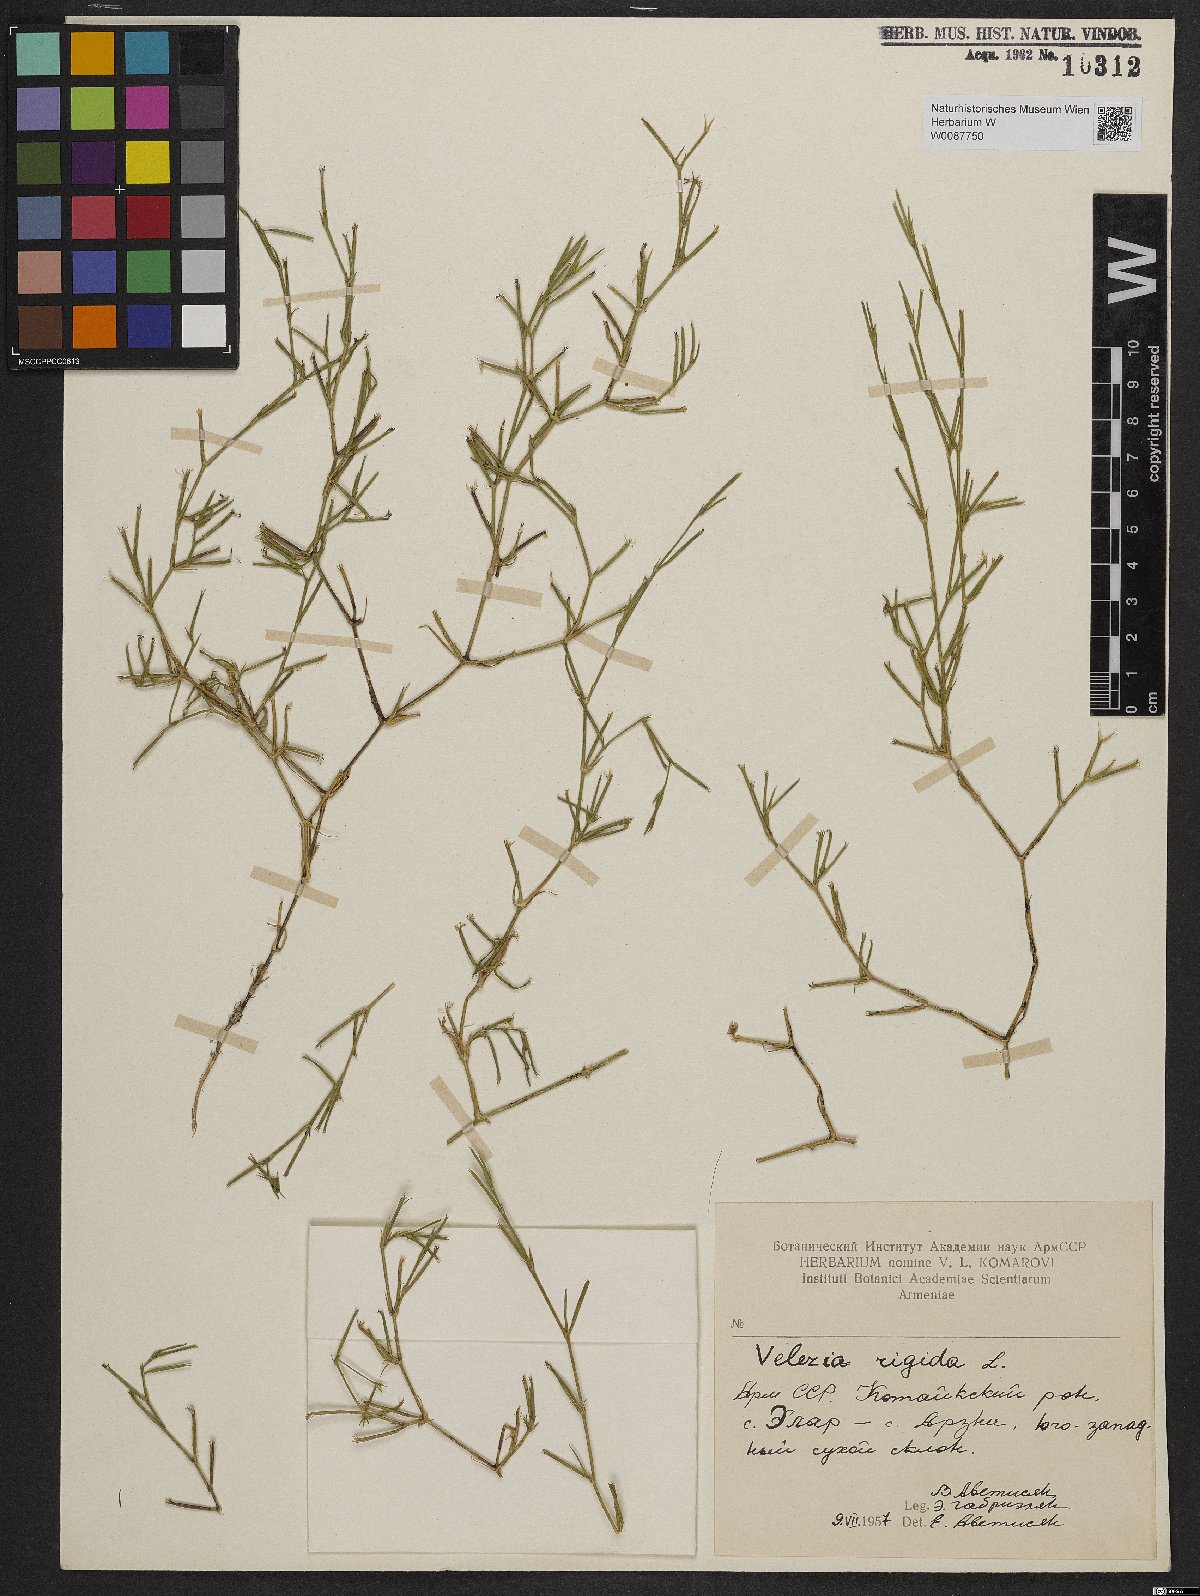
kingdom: Plantae
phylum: Tracheophyta
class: Magnoliopsida
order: Caryophyllales
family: Caryophyllaceae
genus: Dianthus
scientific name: Dianthus nudiflorus
